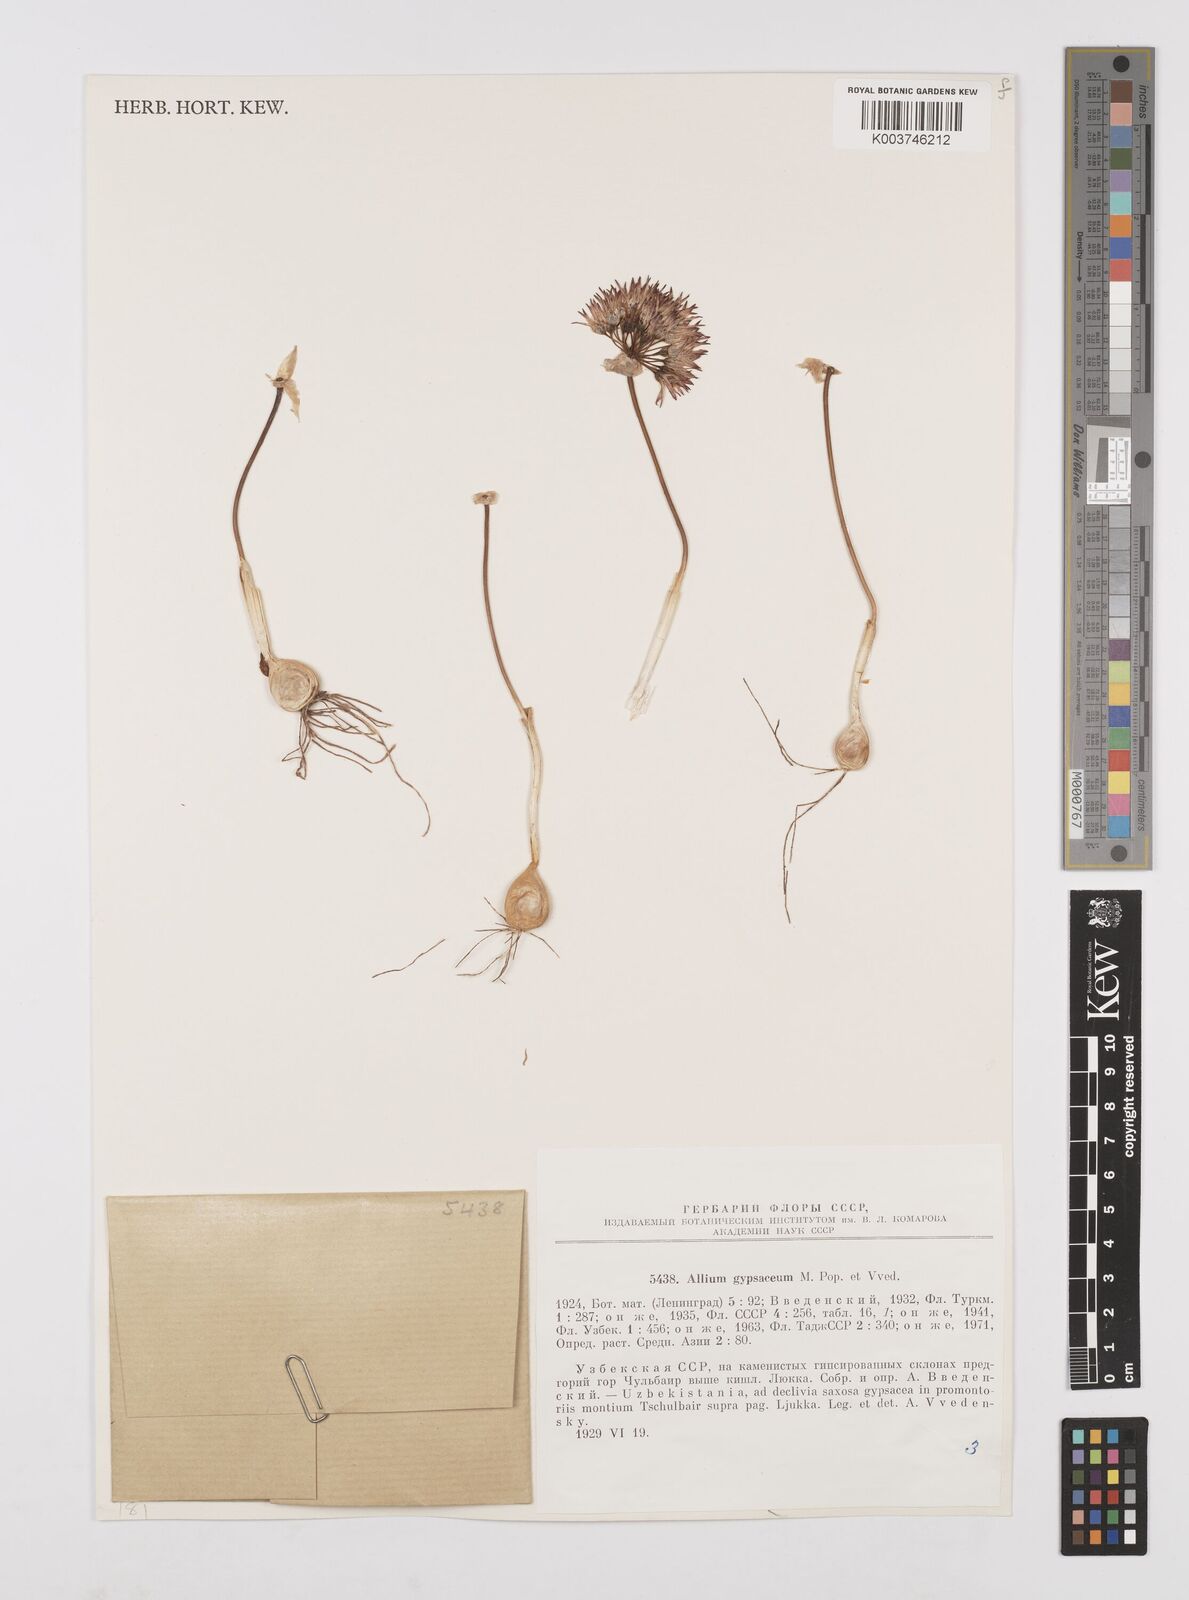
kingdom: Plantae
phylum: Tracheophyta
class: Liliopsida
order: Asparagales
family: Amaryllidaceae
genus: Allium
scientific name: Allium gypsaceum
